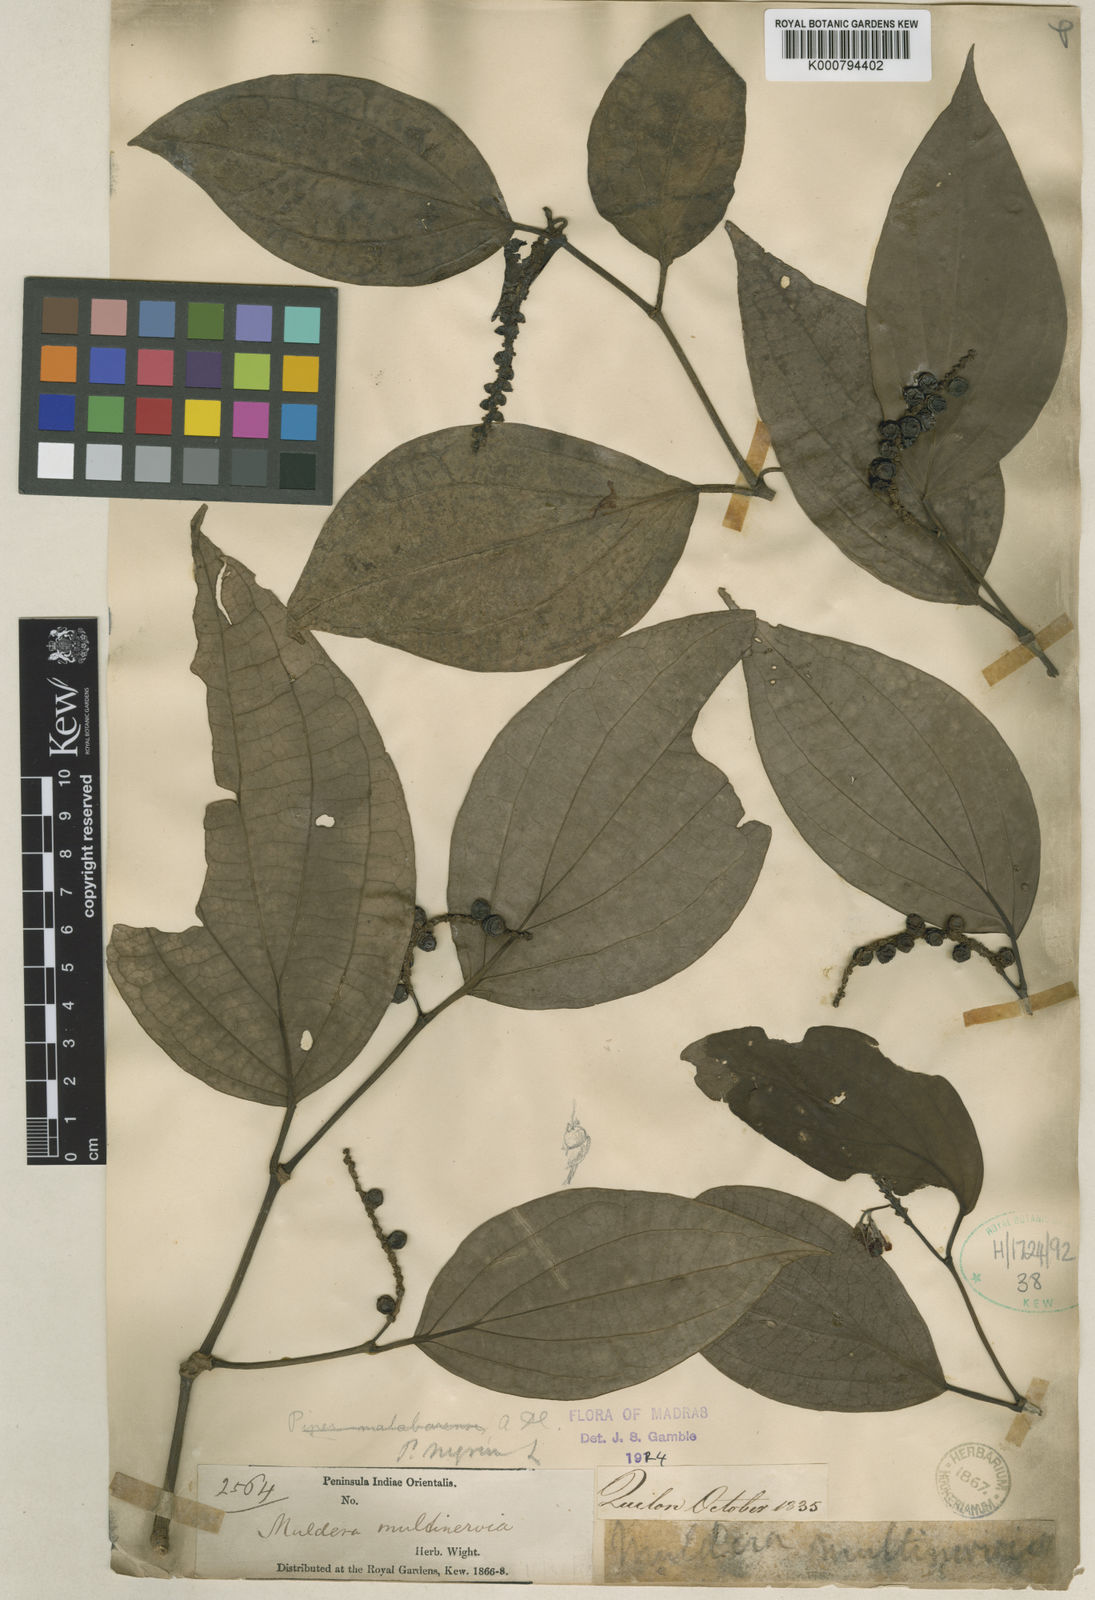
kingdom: Plantae
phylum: Tracheophyta
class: Magnoliopsida
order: Piperales
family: Piperaceae
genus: Piper
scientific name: Piper nigrum
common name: Black pepper
